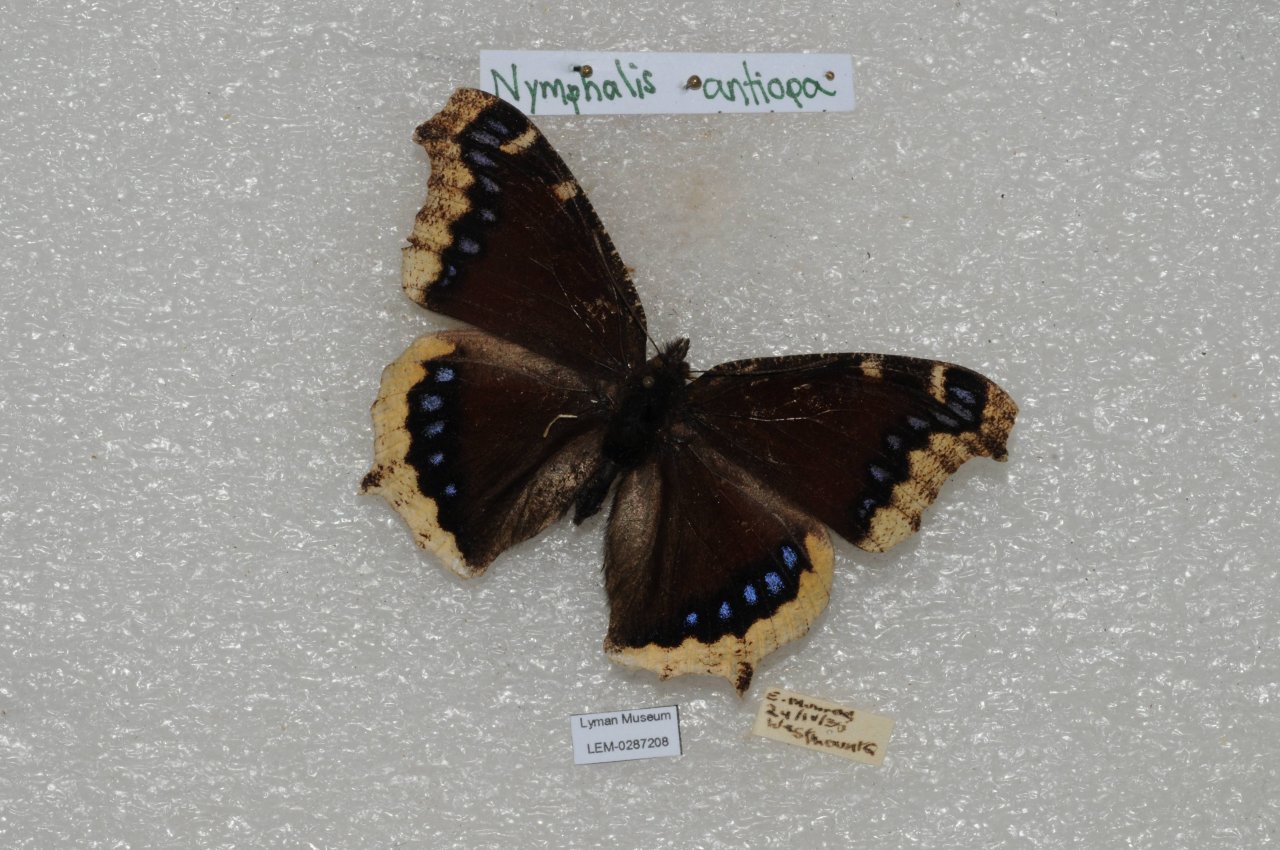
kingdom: Animalia
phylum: Arthropoda
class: Insecta
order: Lepidoptera
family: Nymphalidae
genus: Nymphalis
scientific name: Nymphalis antiopa
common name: Mourning Cloak
